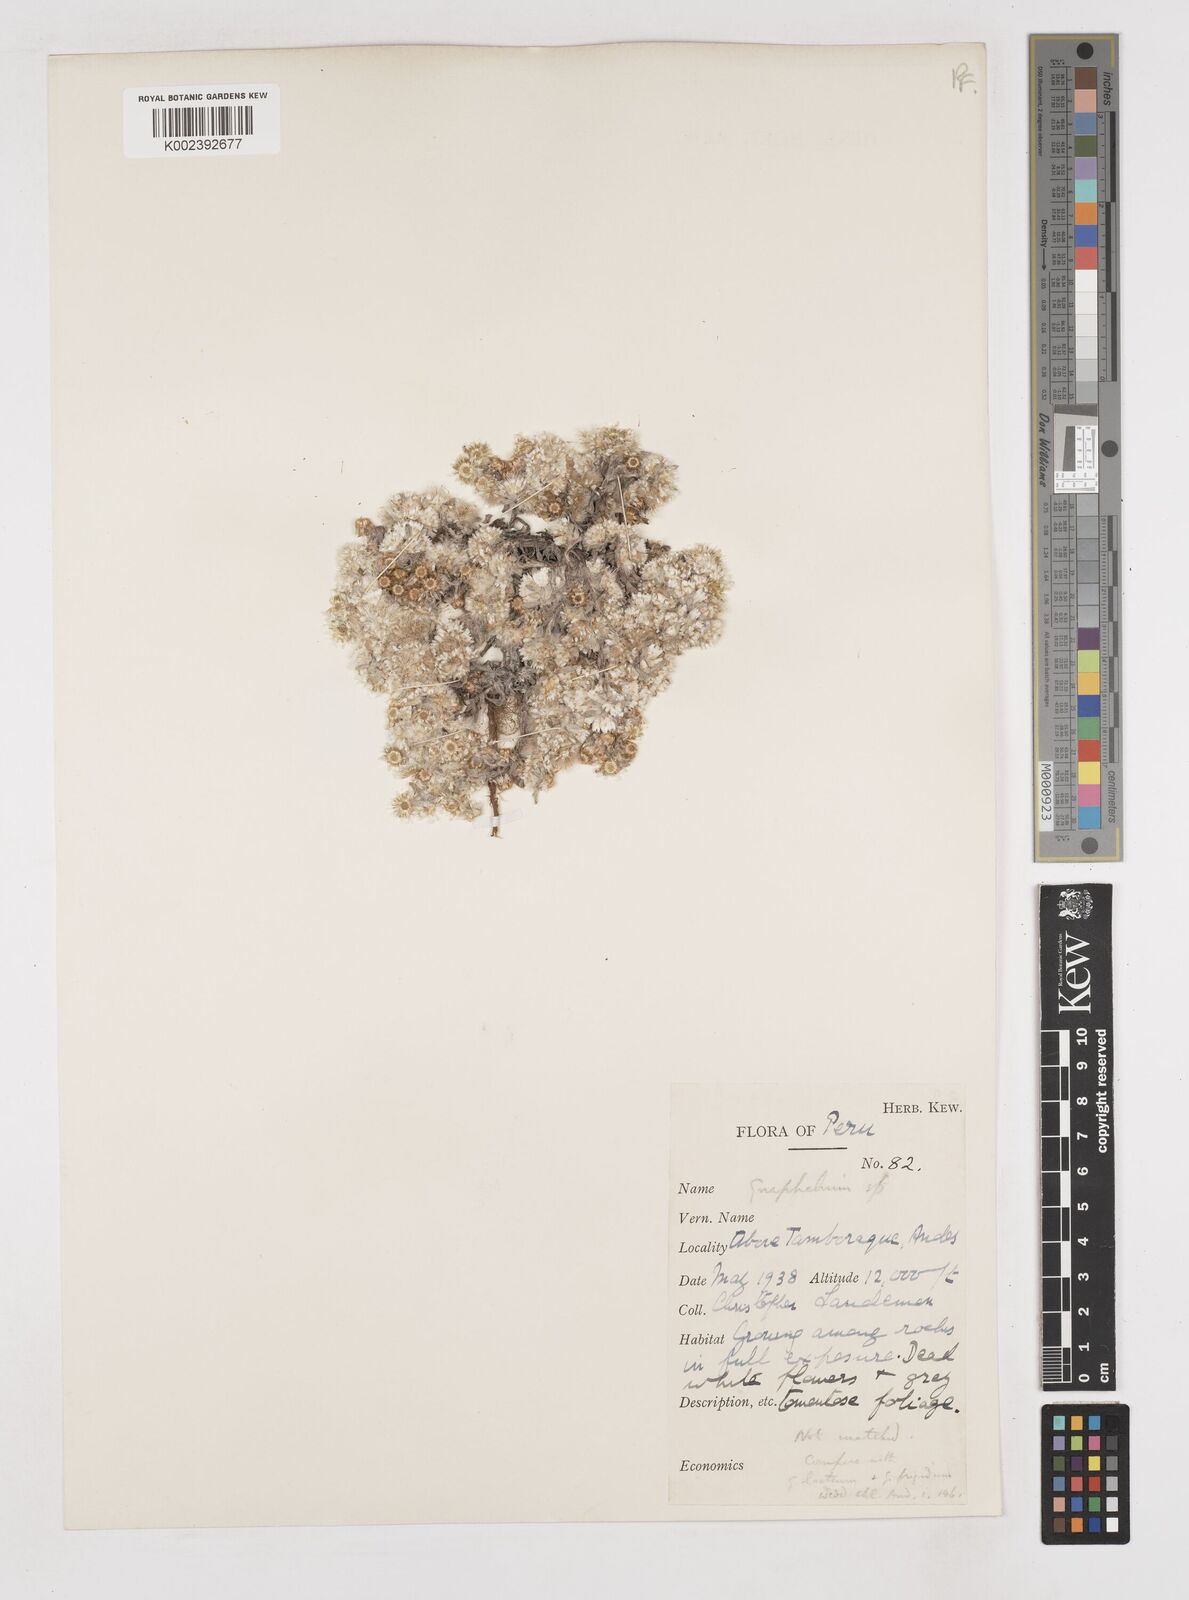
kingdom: Plantae
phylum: Tracheophyta
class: Magnoliopsida
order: Asterales
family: Asteraceae
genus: Gnaphalium
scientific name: Gnaphalium
